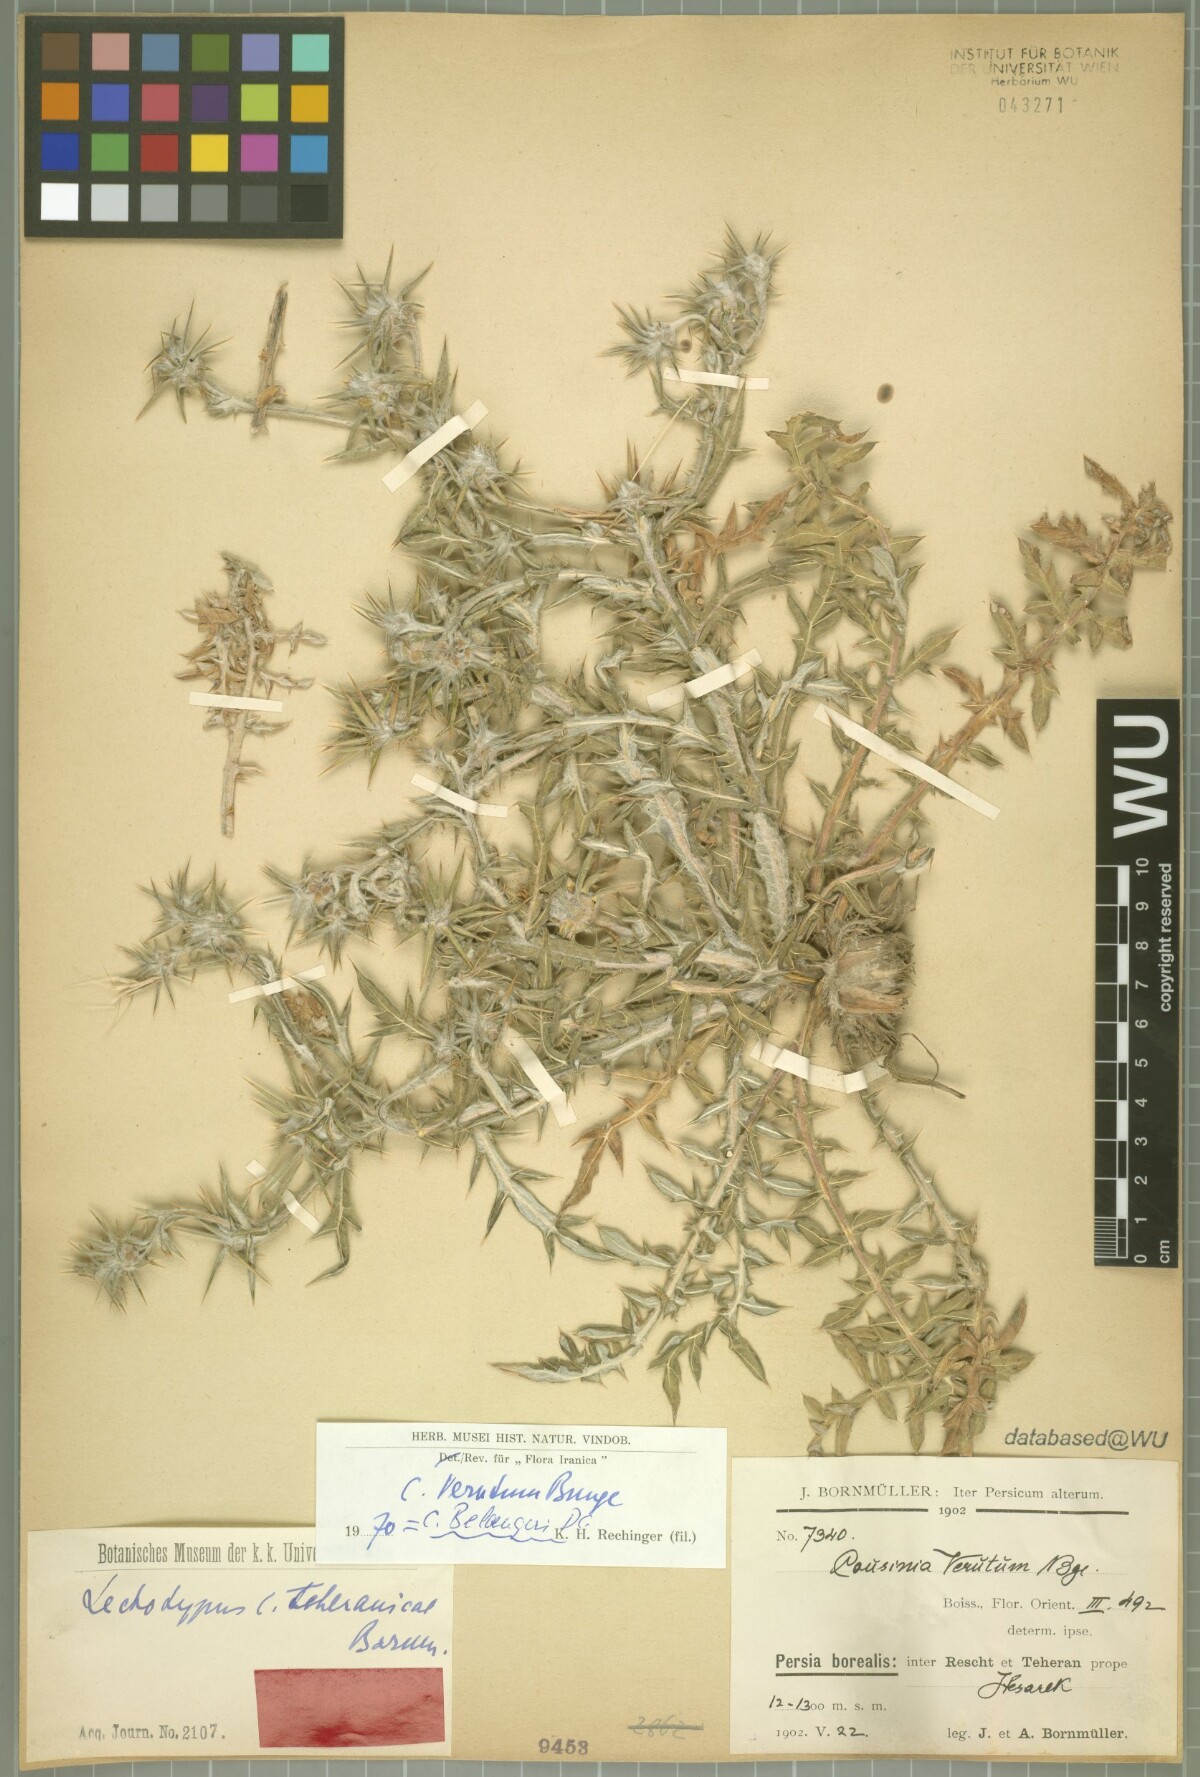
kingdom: Plantae
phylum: Tracheophyta
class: Magnoliopsida
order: Asterales
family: Asteraceae
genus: Cousinia
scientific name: Cousinia belangeri
